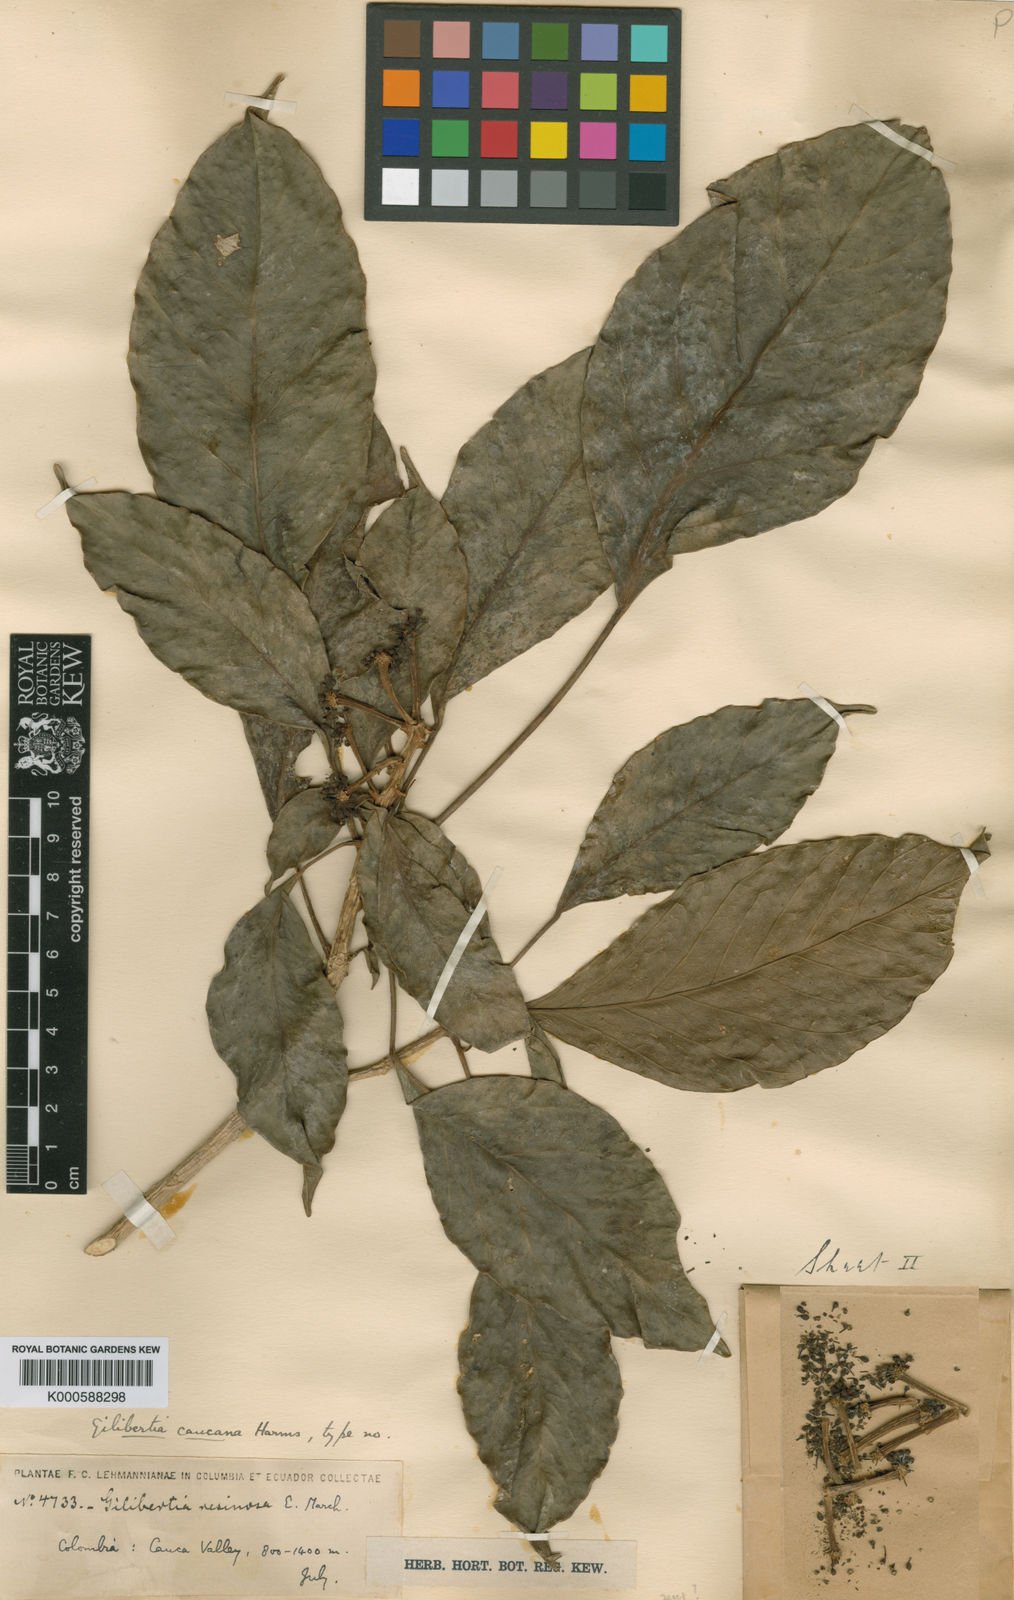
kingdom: Plantae
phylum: Tracheophyta
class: Magnoliopsida
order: Apiales
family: Araliaceae
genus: Dendropanax
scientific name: Dendropanax caucanus
